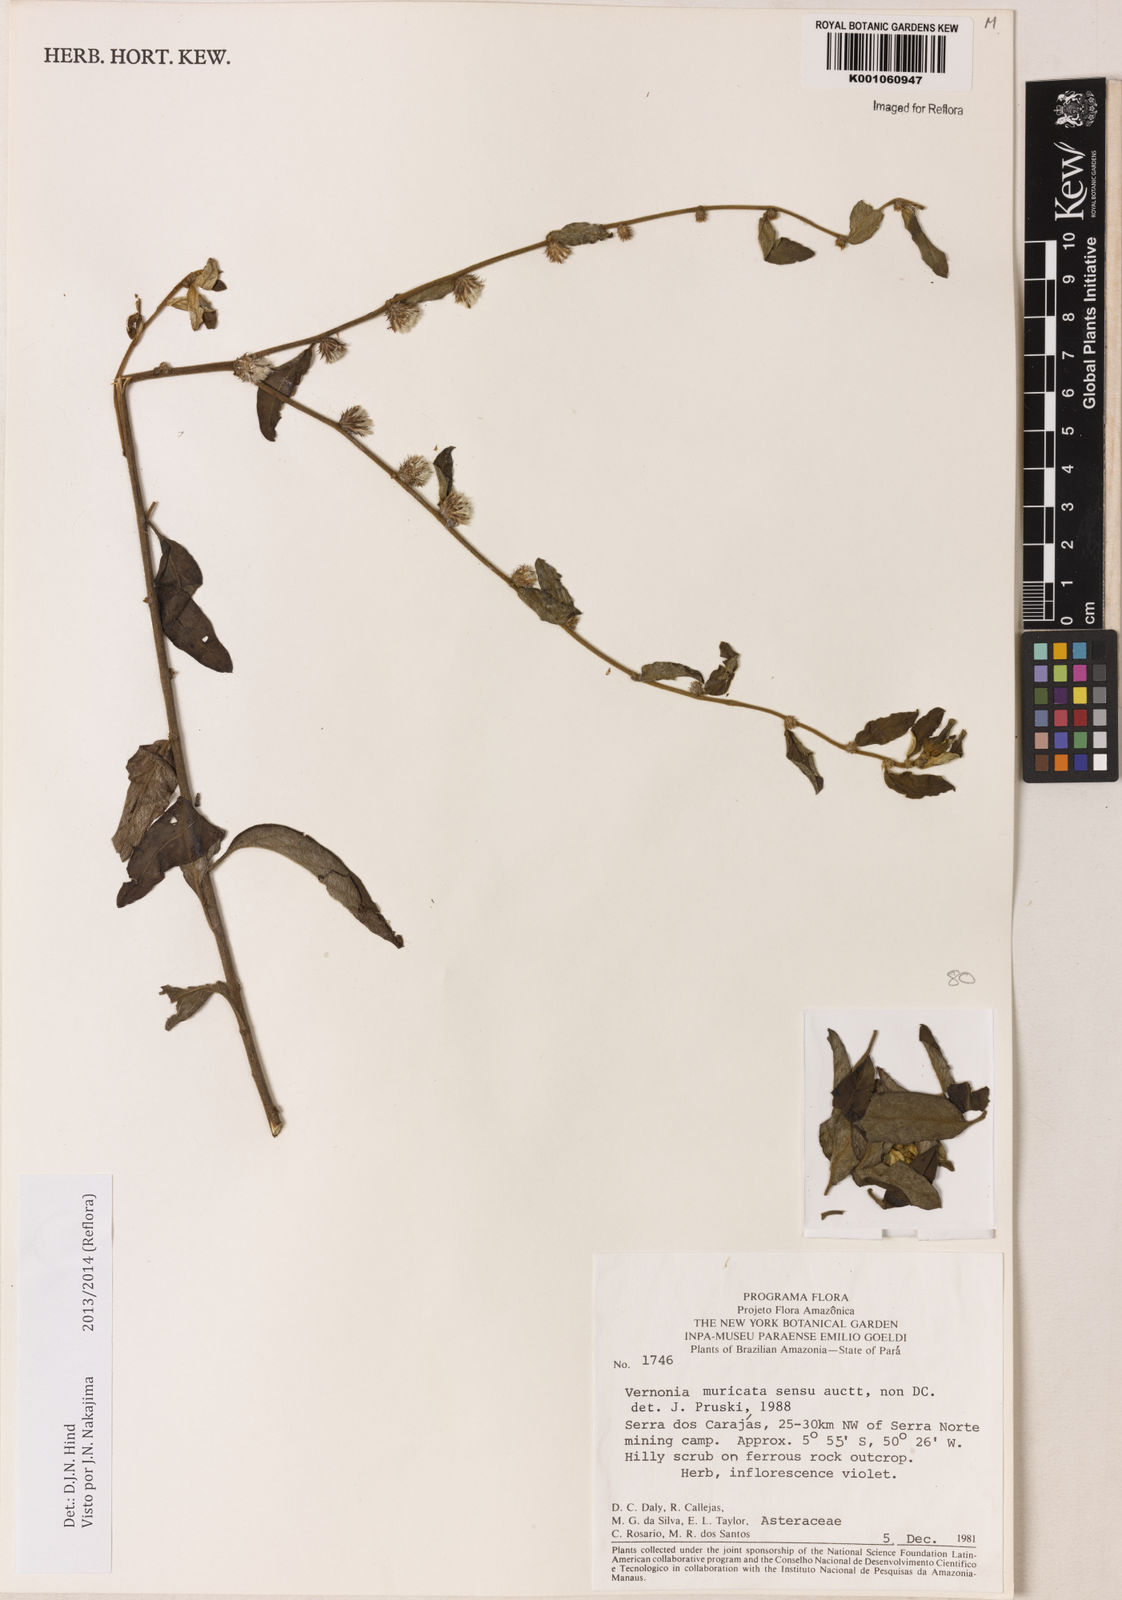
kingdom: Plantae
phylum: Tracheophyta
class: Magnoliopsida
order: Asterales
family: Asteraceae
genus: Lepidaploa
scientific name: Lepidaploa muricata
